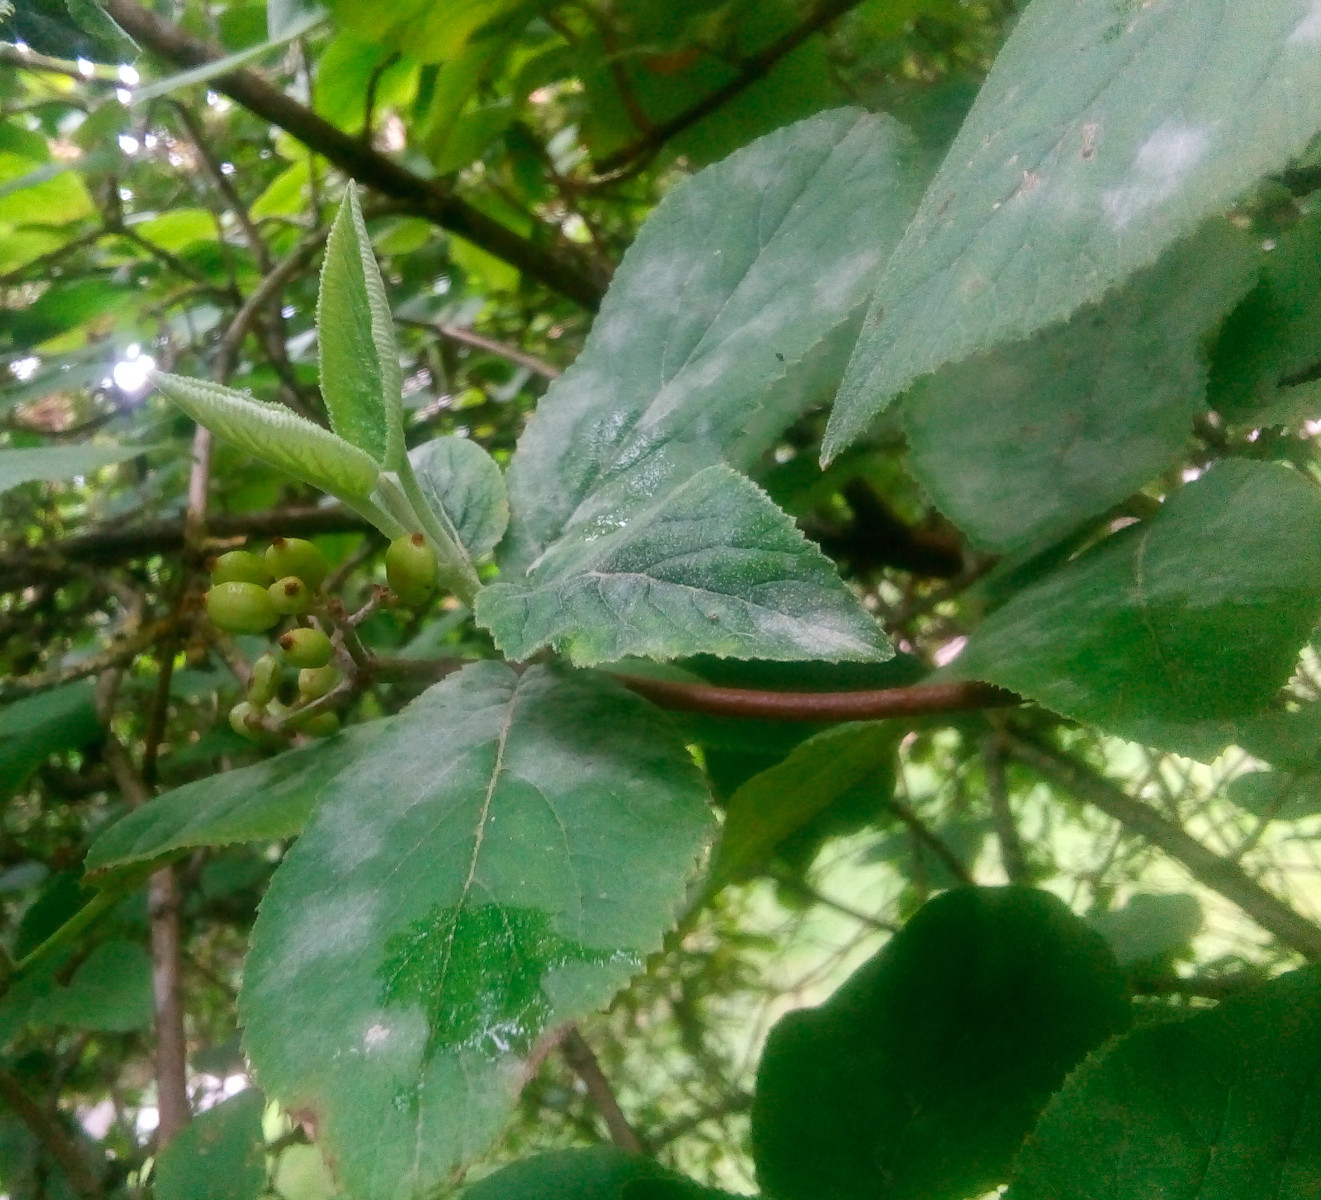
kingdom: Fungi
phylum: Ascomycota
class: Leotiomycetes
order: Helotiales
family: Erysiphaceae
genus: Erysiphe
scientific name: Erysiphe hedwigii
